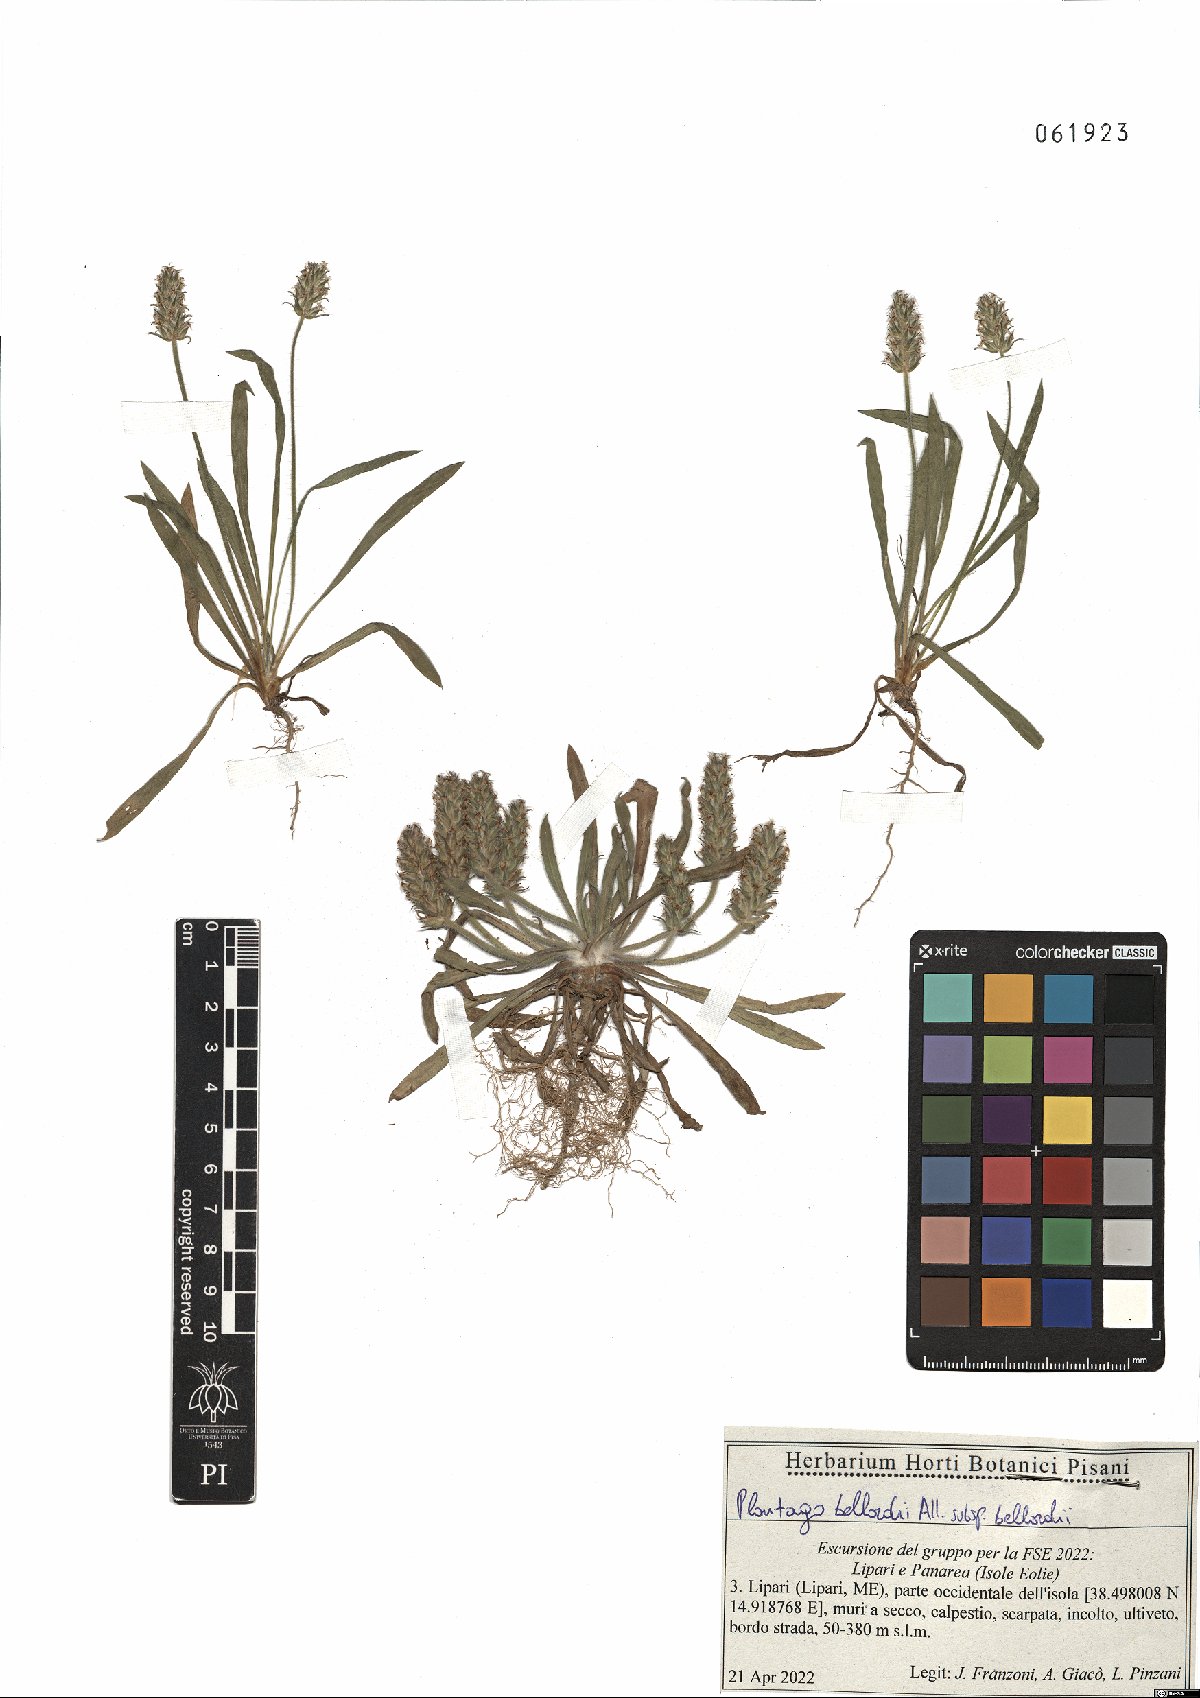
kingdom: Plantae
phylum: Tracheophyta
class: Magnoliopsida
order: Lamiales
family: Plantaginaceae
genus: Plantago
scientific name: Plantago bellardii
